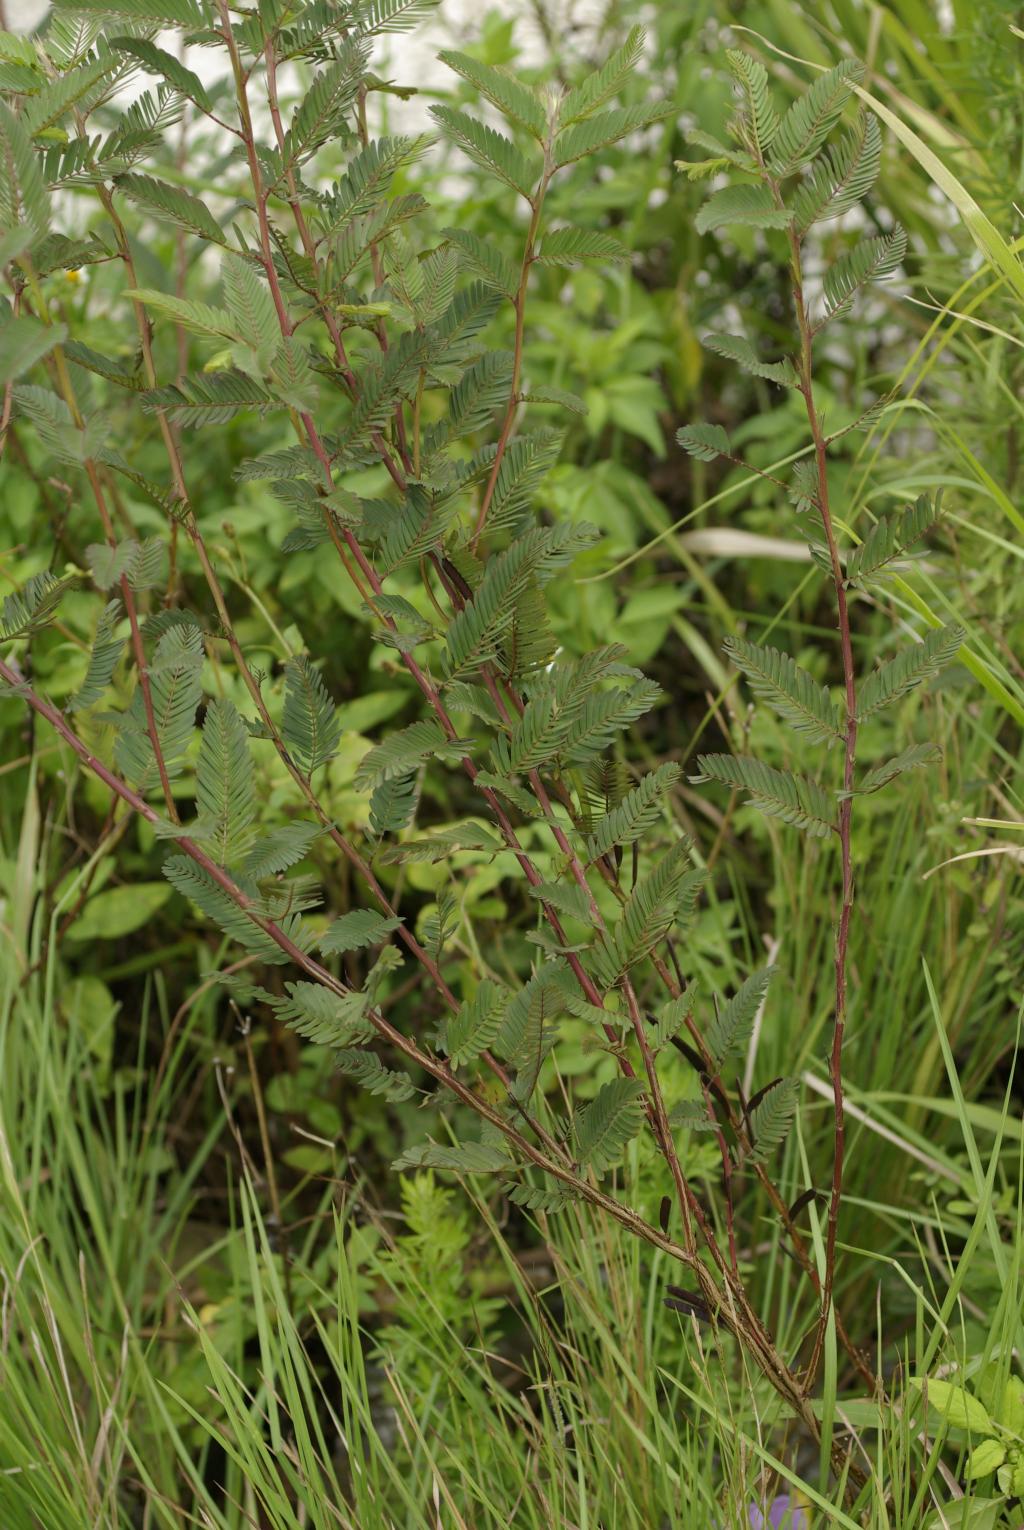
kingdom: Plantae
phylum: Tracheophyta
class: Magnoliopsida
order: Fabales
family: Fabaceae
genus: Chamaecrista
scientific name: Chamaecrista nictitans
